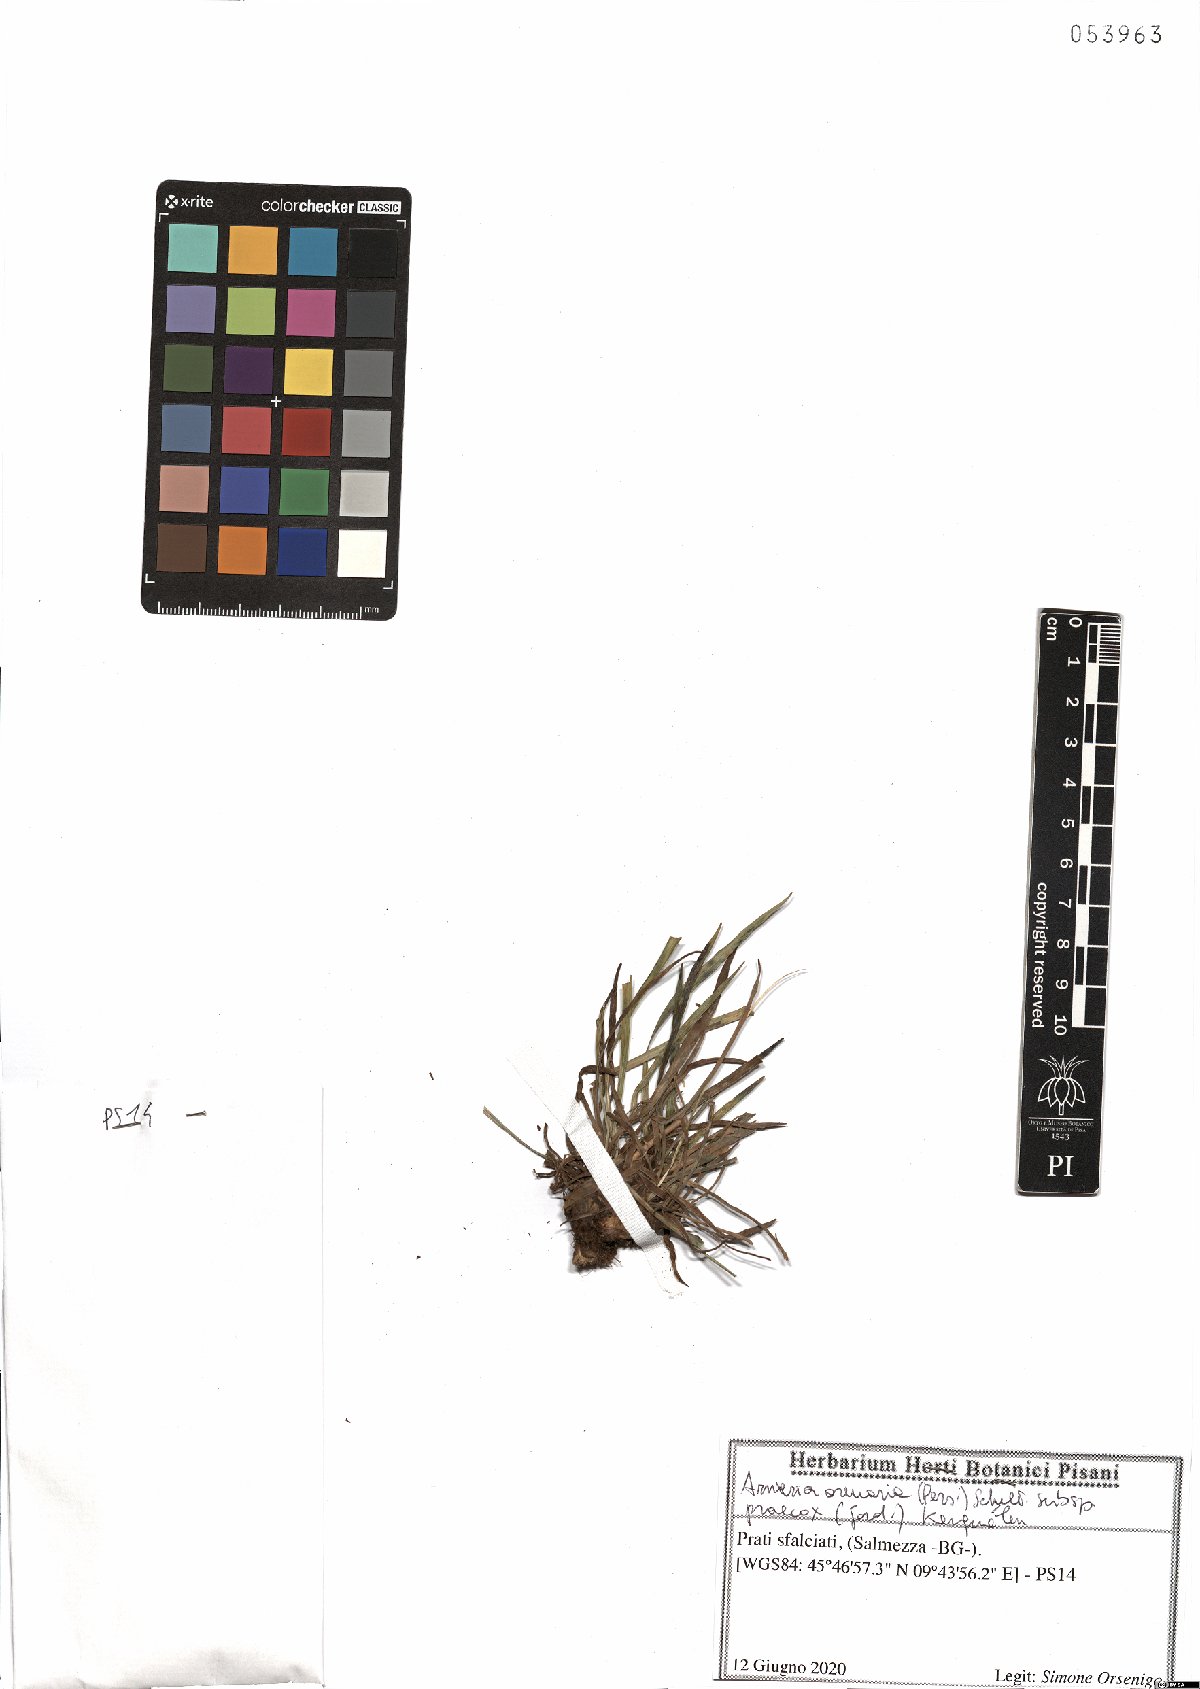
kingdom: Plantae
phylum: Tracheophyta
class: Magnoliopsida
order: Caryophyllales
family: Plumbaginaceae
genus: Armeria
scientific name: Armeria arenaria
